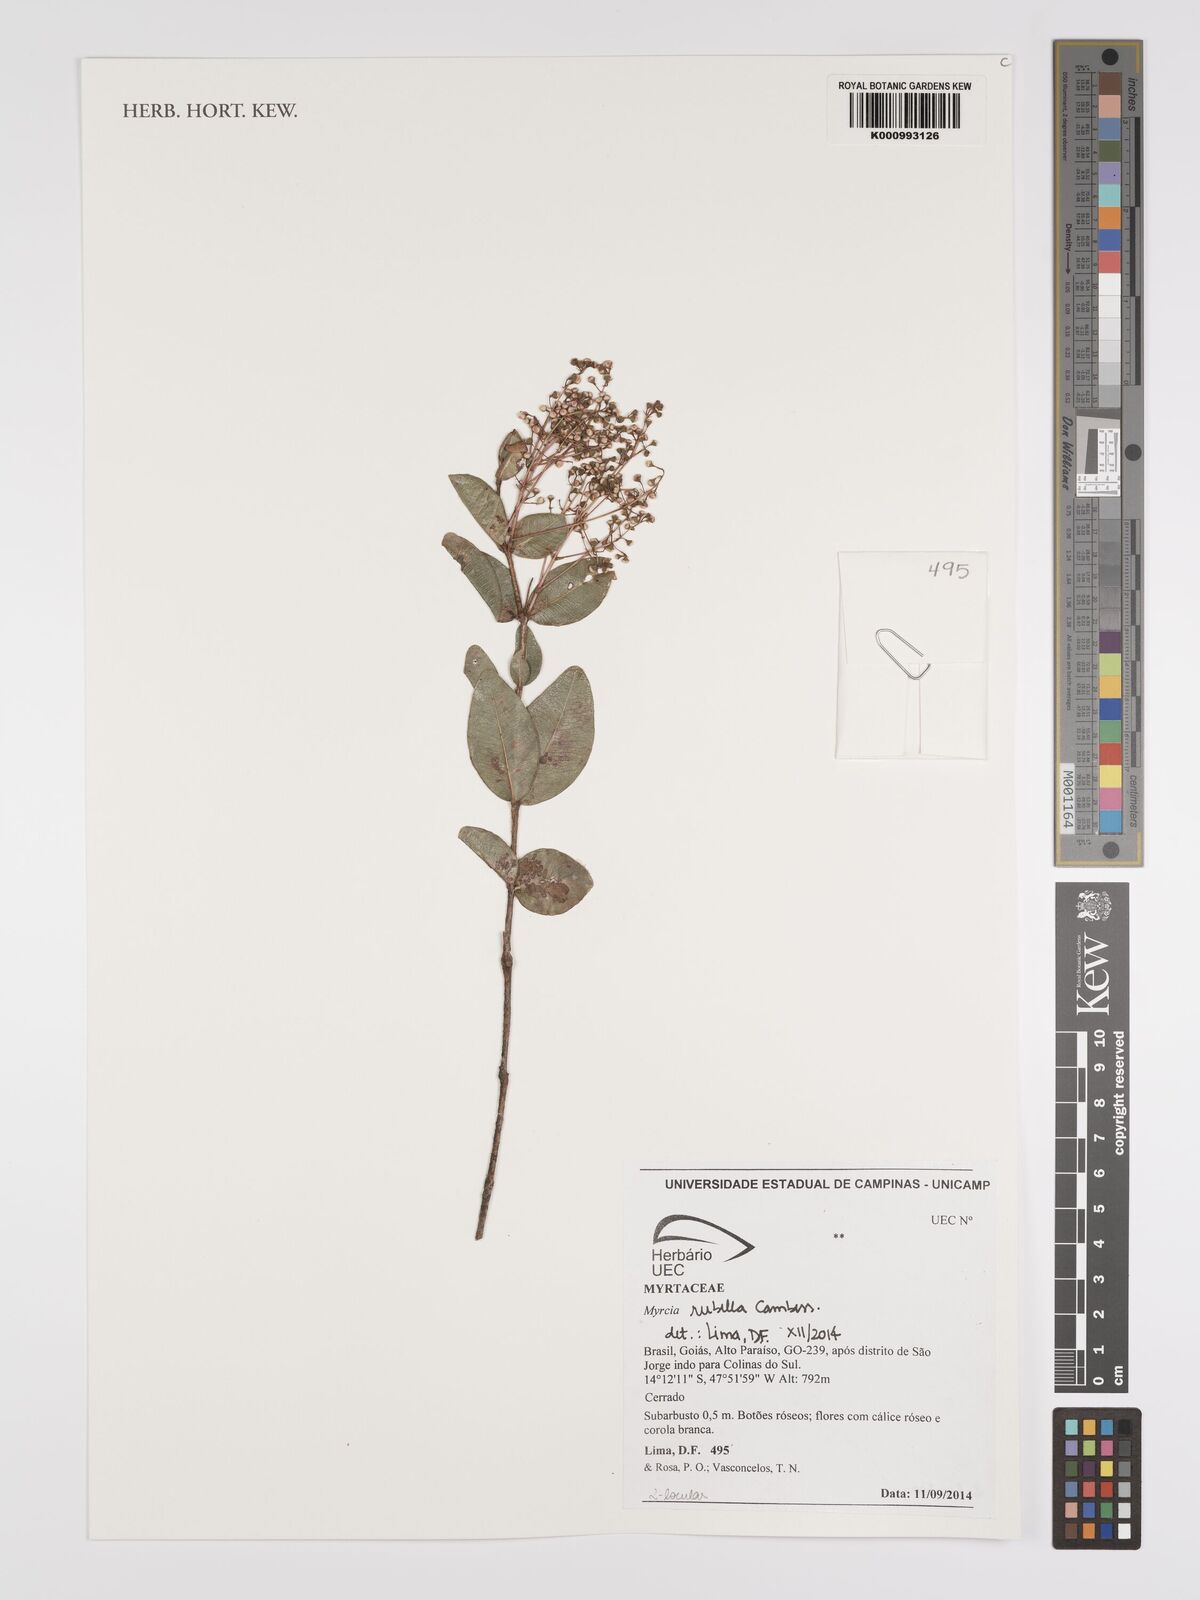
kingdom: Plantae
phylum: Tracheophyta
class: Magnoliopsida
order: Myrtales
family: Myrtaceae
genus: Myrcia
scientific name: Myrcia guianensis
